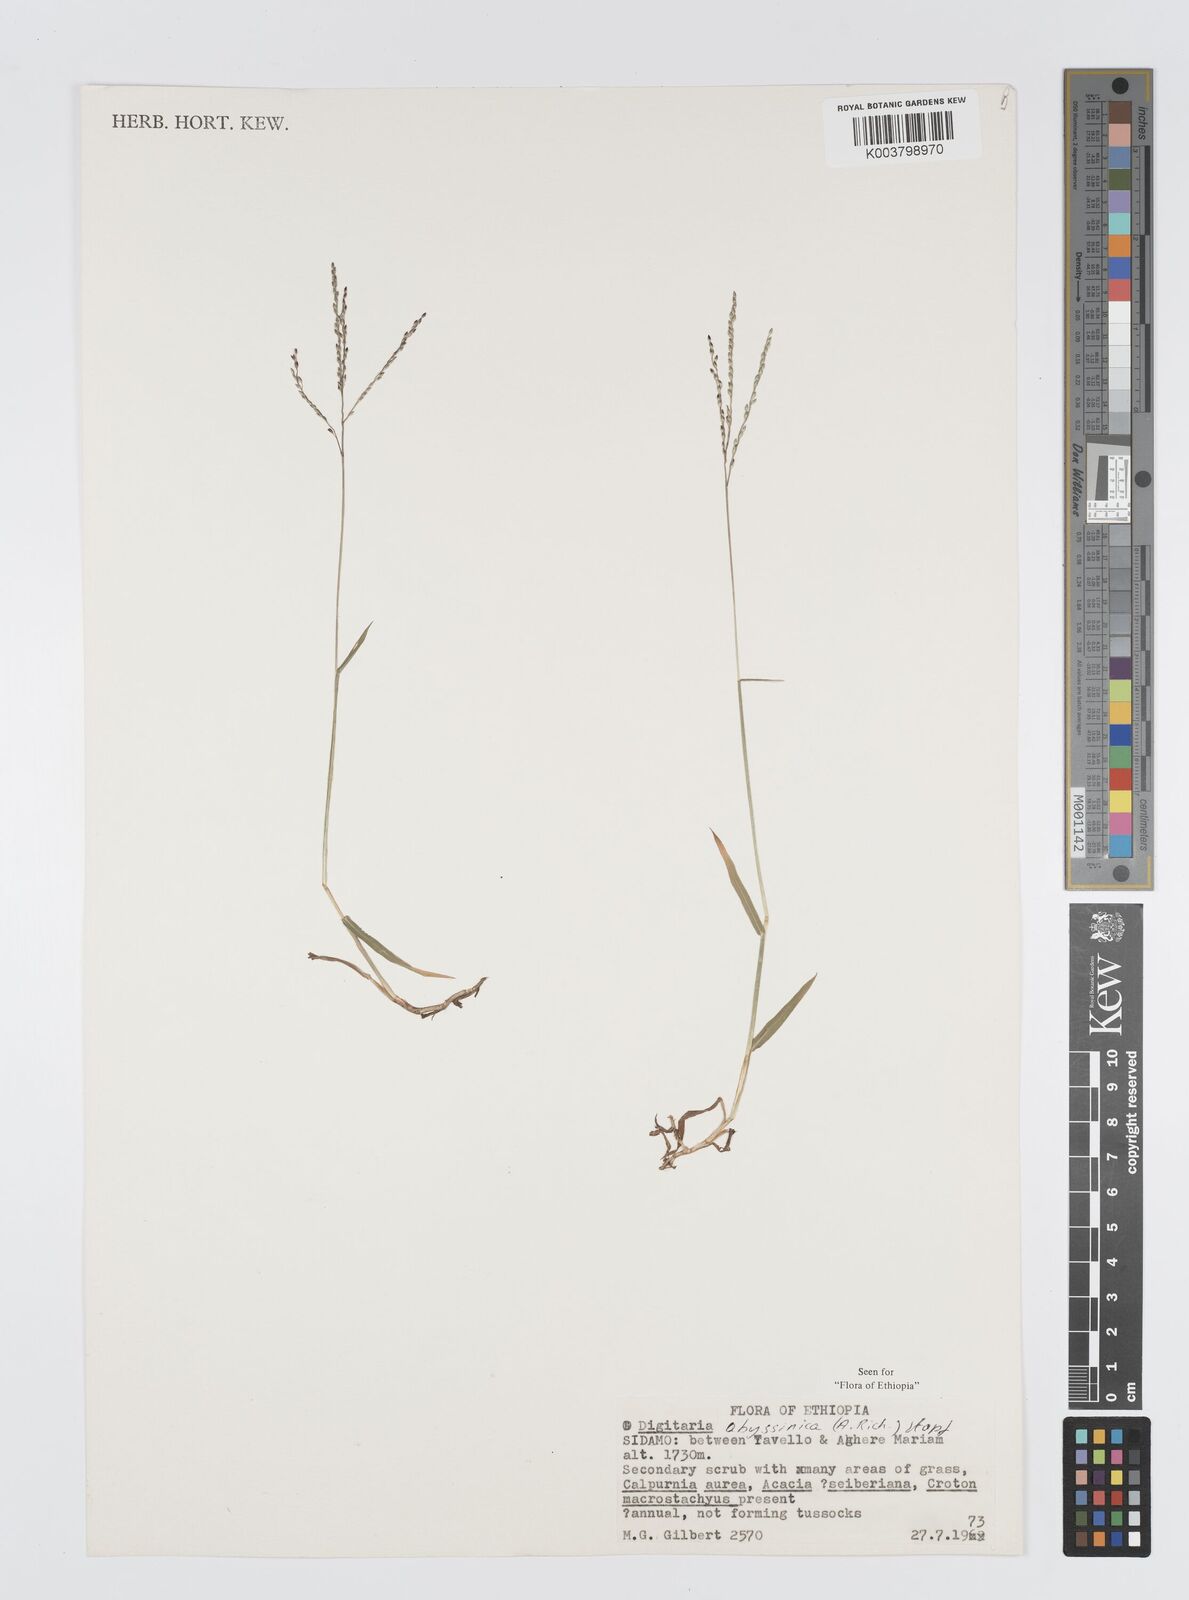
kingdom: Plantae
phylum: Tracheophyta
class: Liliopsida
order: Poales
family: Poaceae
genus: Digitaria
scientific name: Digitaria abyssinica
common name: African couchgrass
